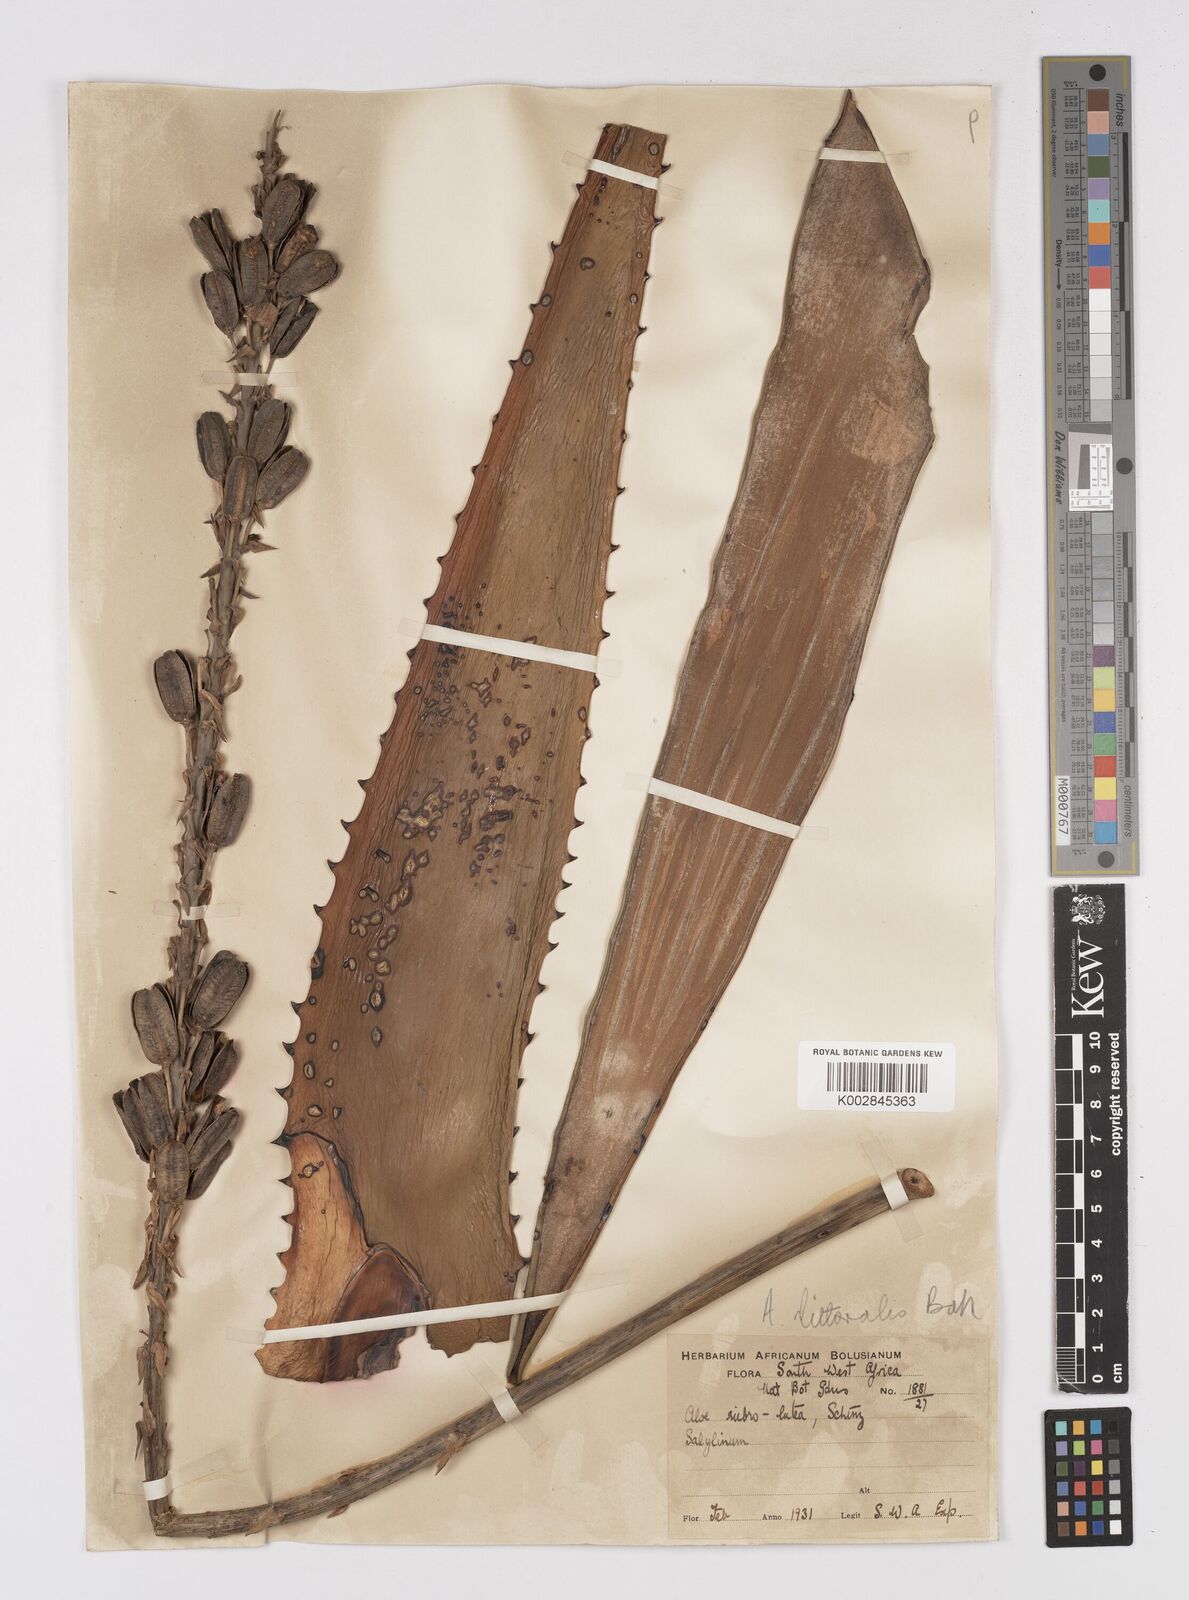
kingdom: Plantae
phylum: Tracheophyta
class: Liliopsida
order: Asparagales
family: Asphodelaceae
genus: Aloe
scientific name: Aloe littoralis
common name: Luanda tree aloe
